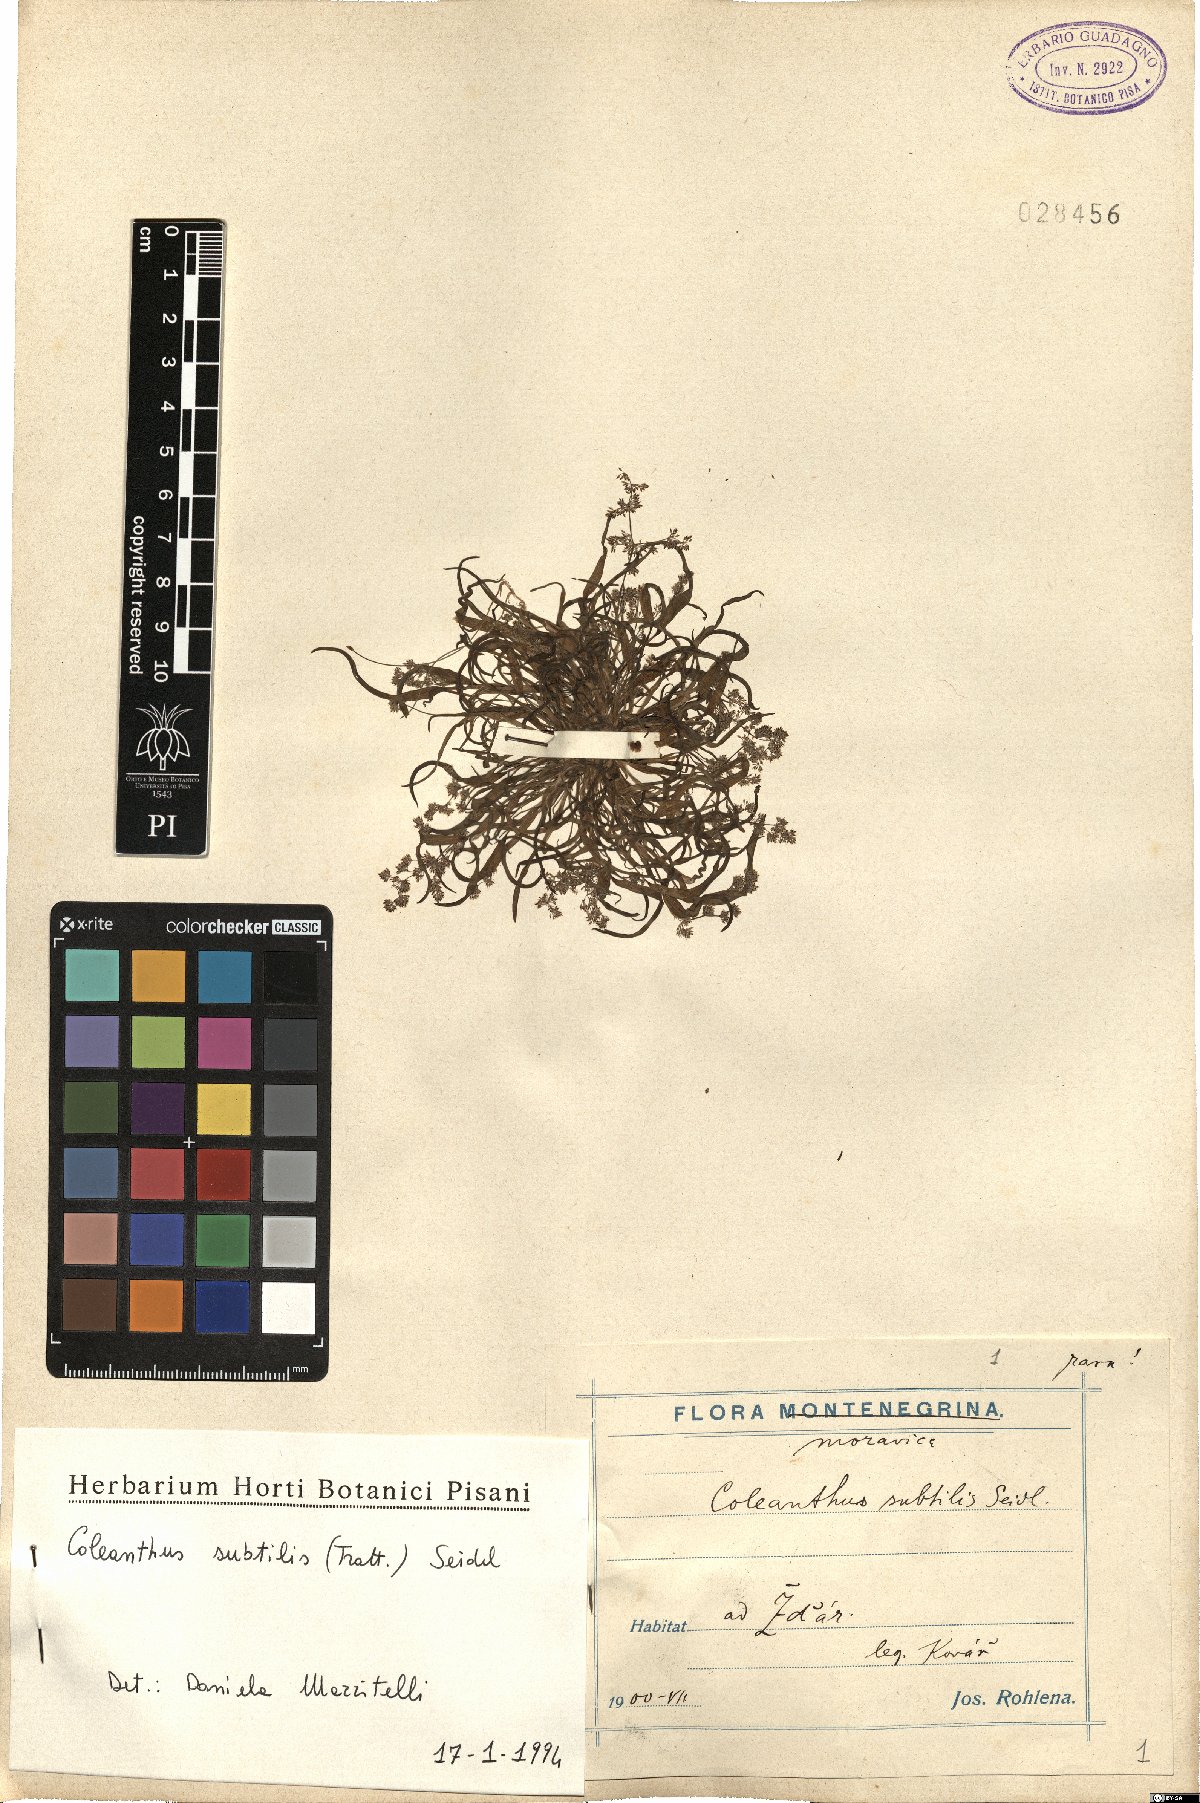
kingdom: Plantae
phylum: Tracheophyta
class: Liliopsida
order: Poales
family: Poaceae
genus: Coleanthus
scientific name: Coleanthus subtilis
